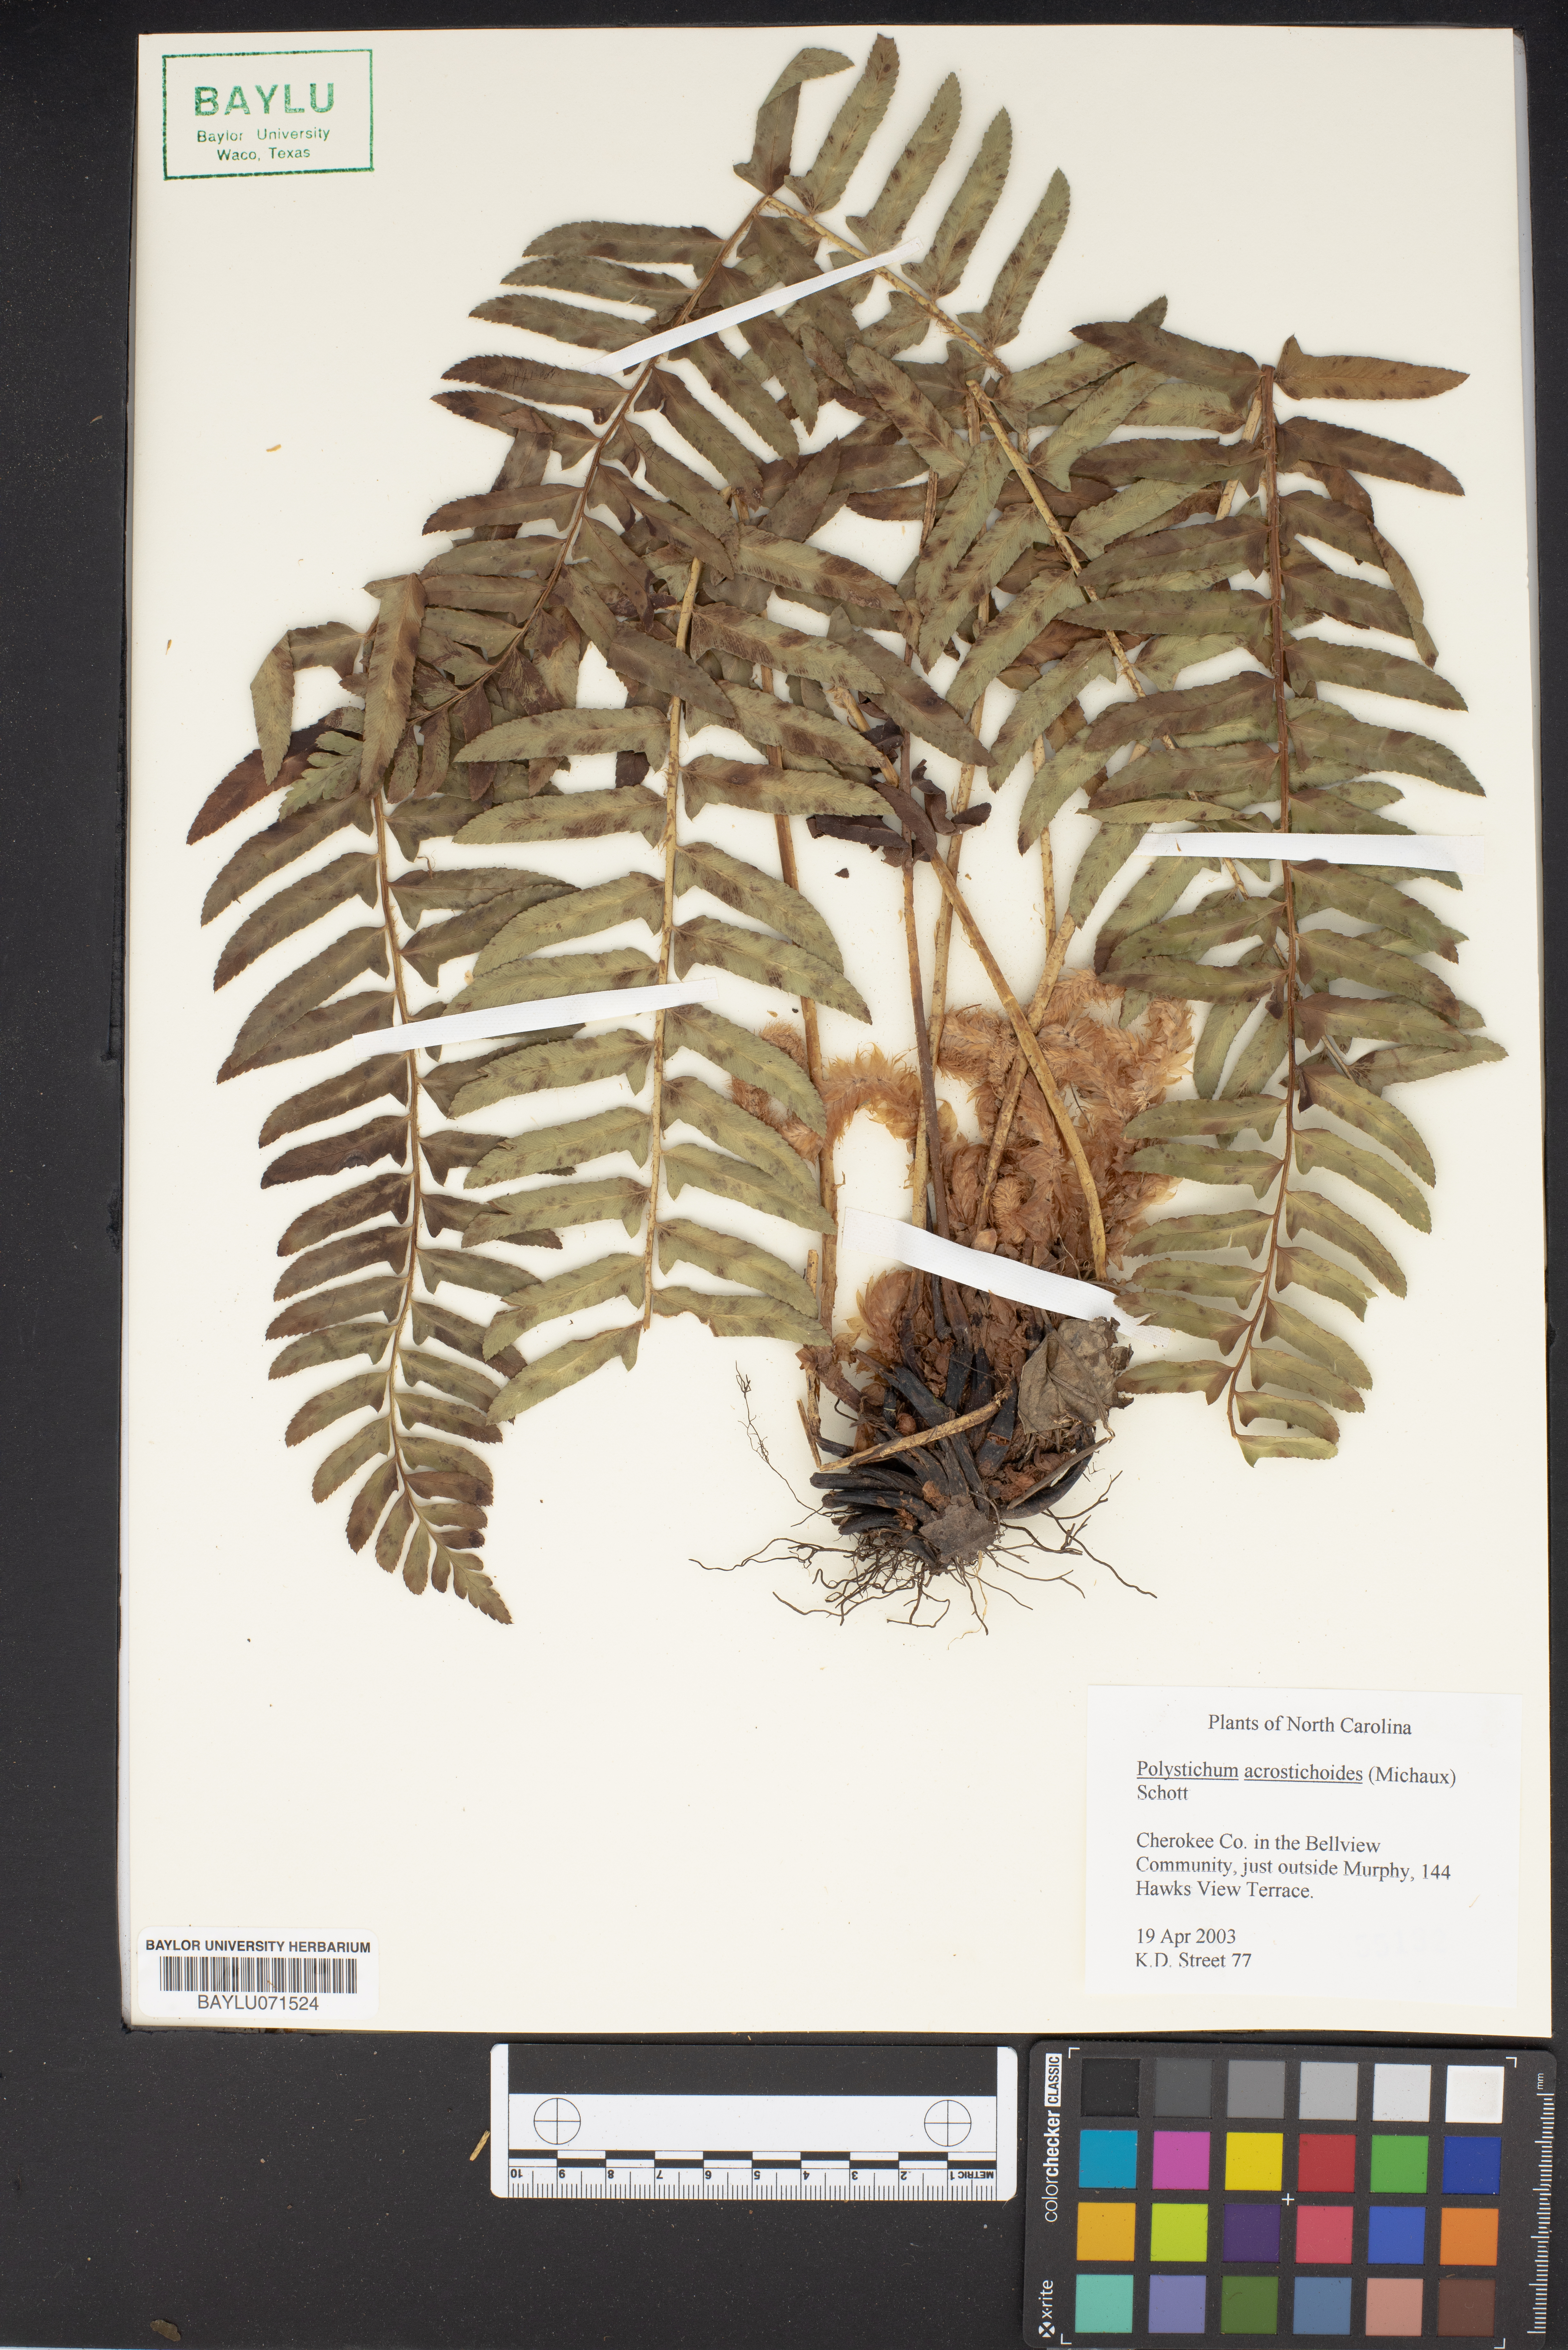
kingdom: Plantae
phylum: Tracheophyta
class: Polypodiopsida
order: Polypodiales
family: Dryopteridaceae
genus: Polystichum
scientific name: Polystichum acrostichoides
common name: Christmas fern
